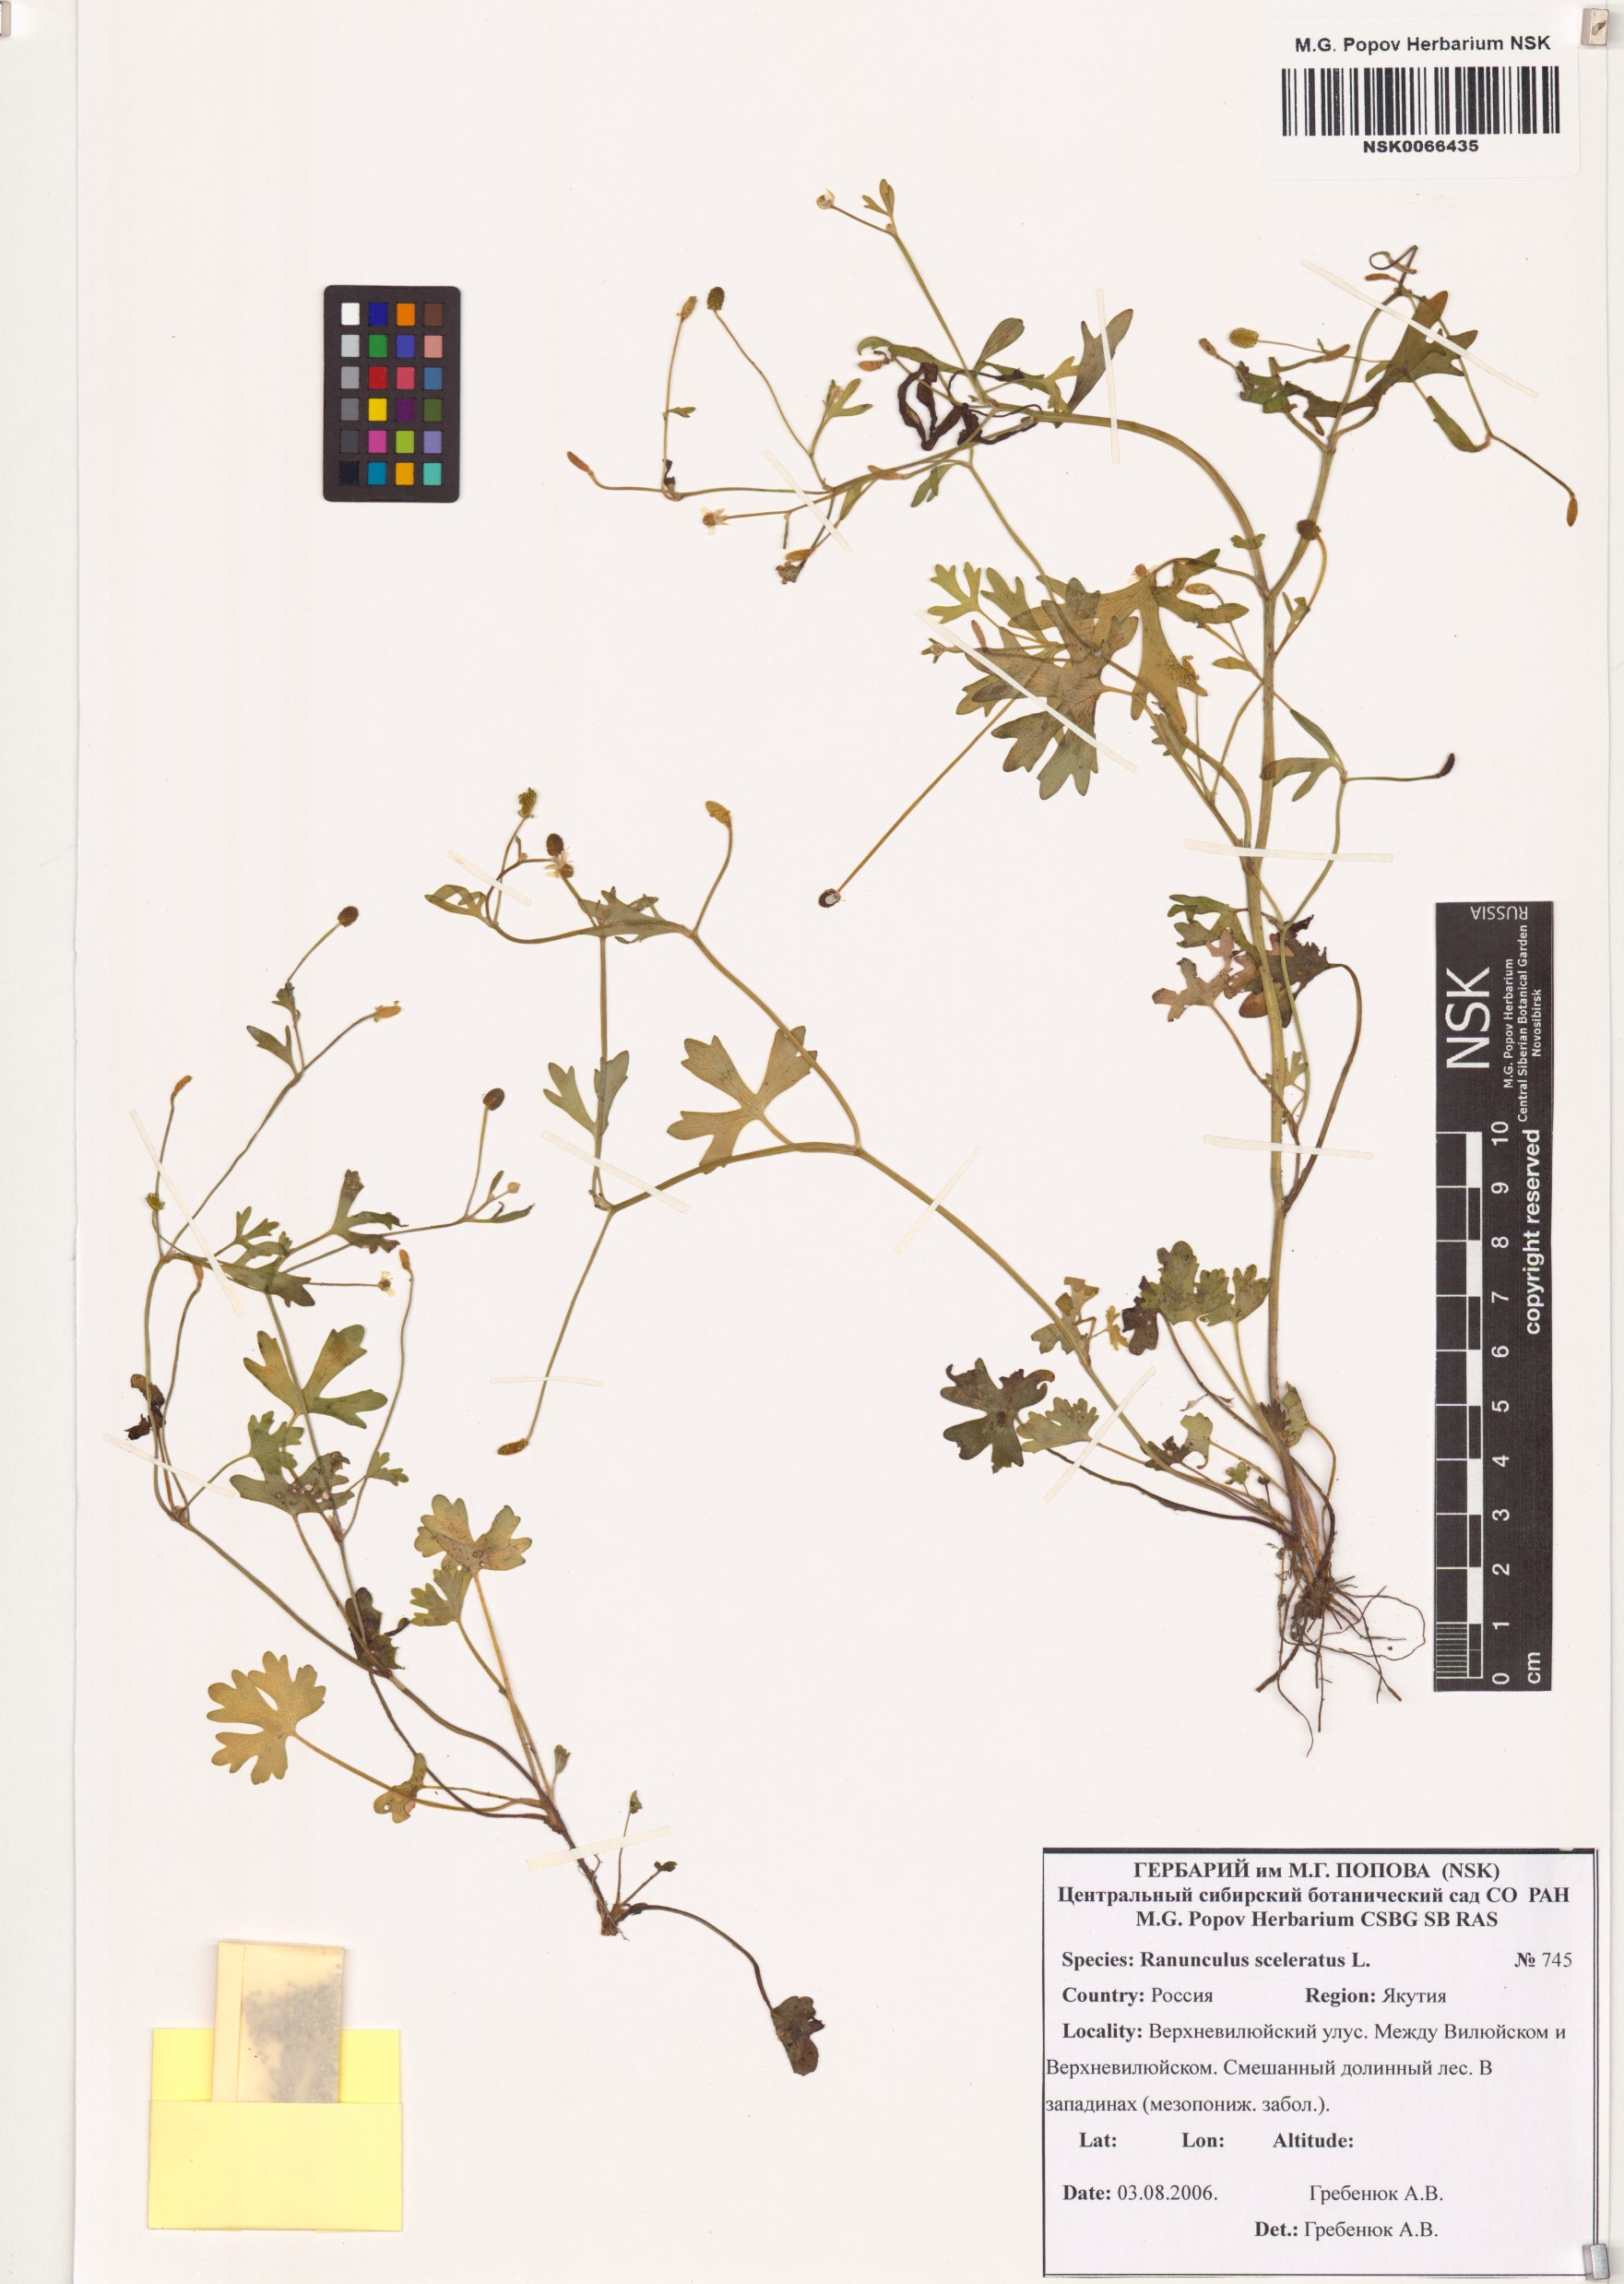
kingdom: Plantae
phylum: Tracheophyta
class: Magnoliopsida
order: Ranunculales
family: Ranunculaceae
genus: Ranunculus
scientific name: Ranunculus sceleratus
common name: Celery-leaved buttercup
